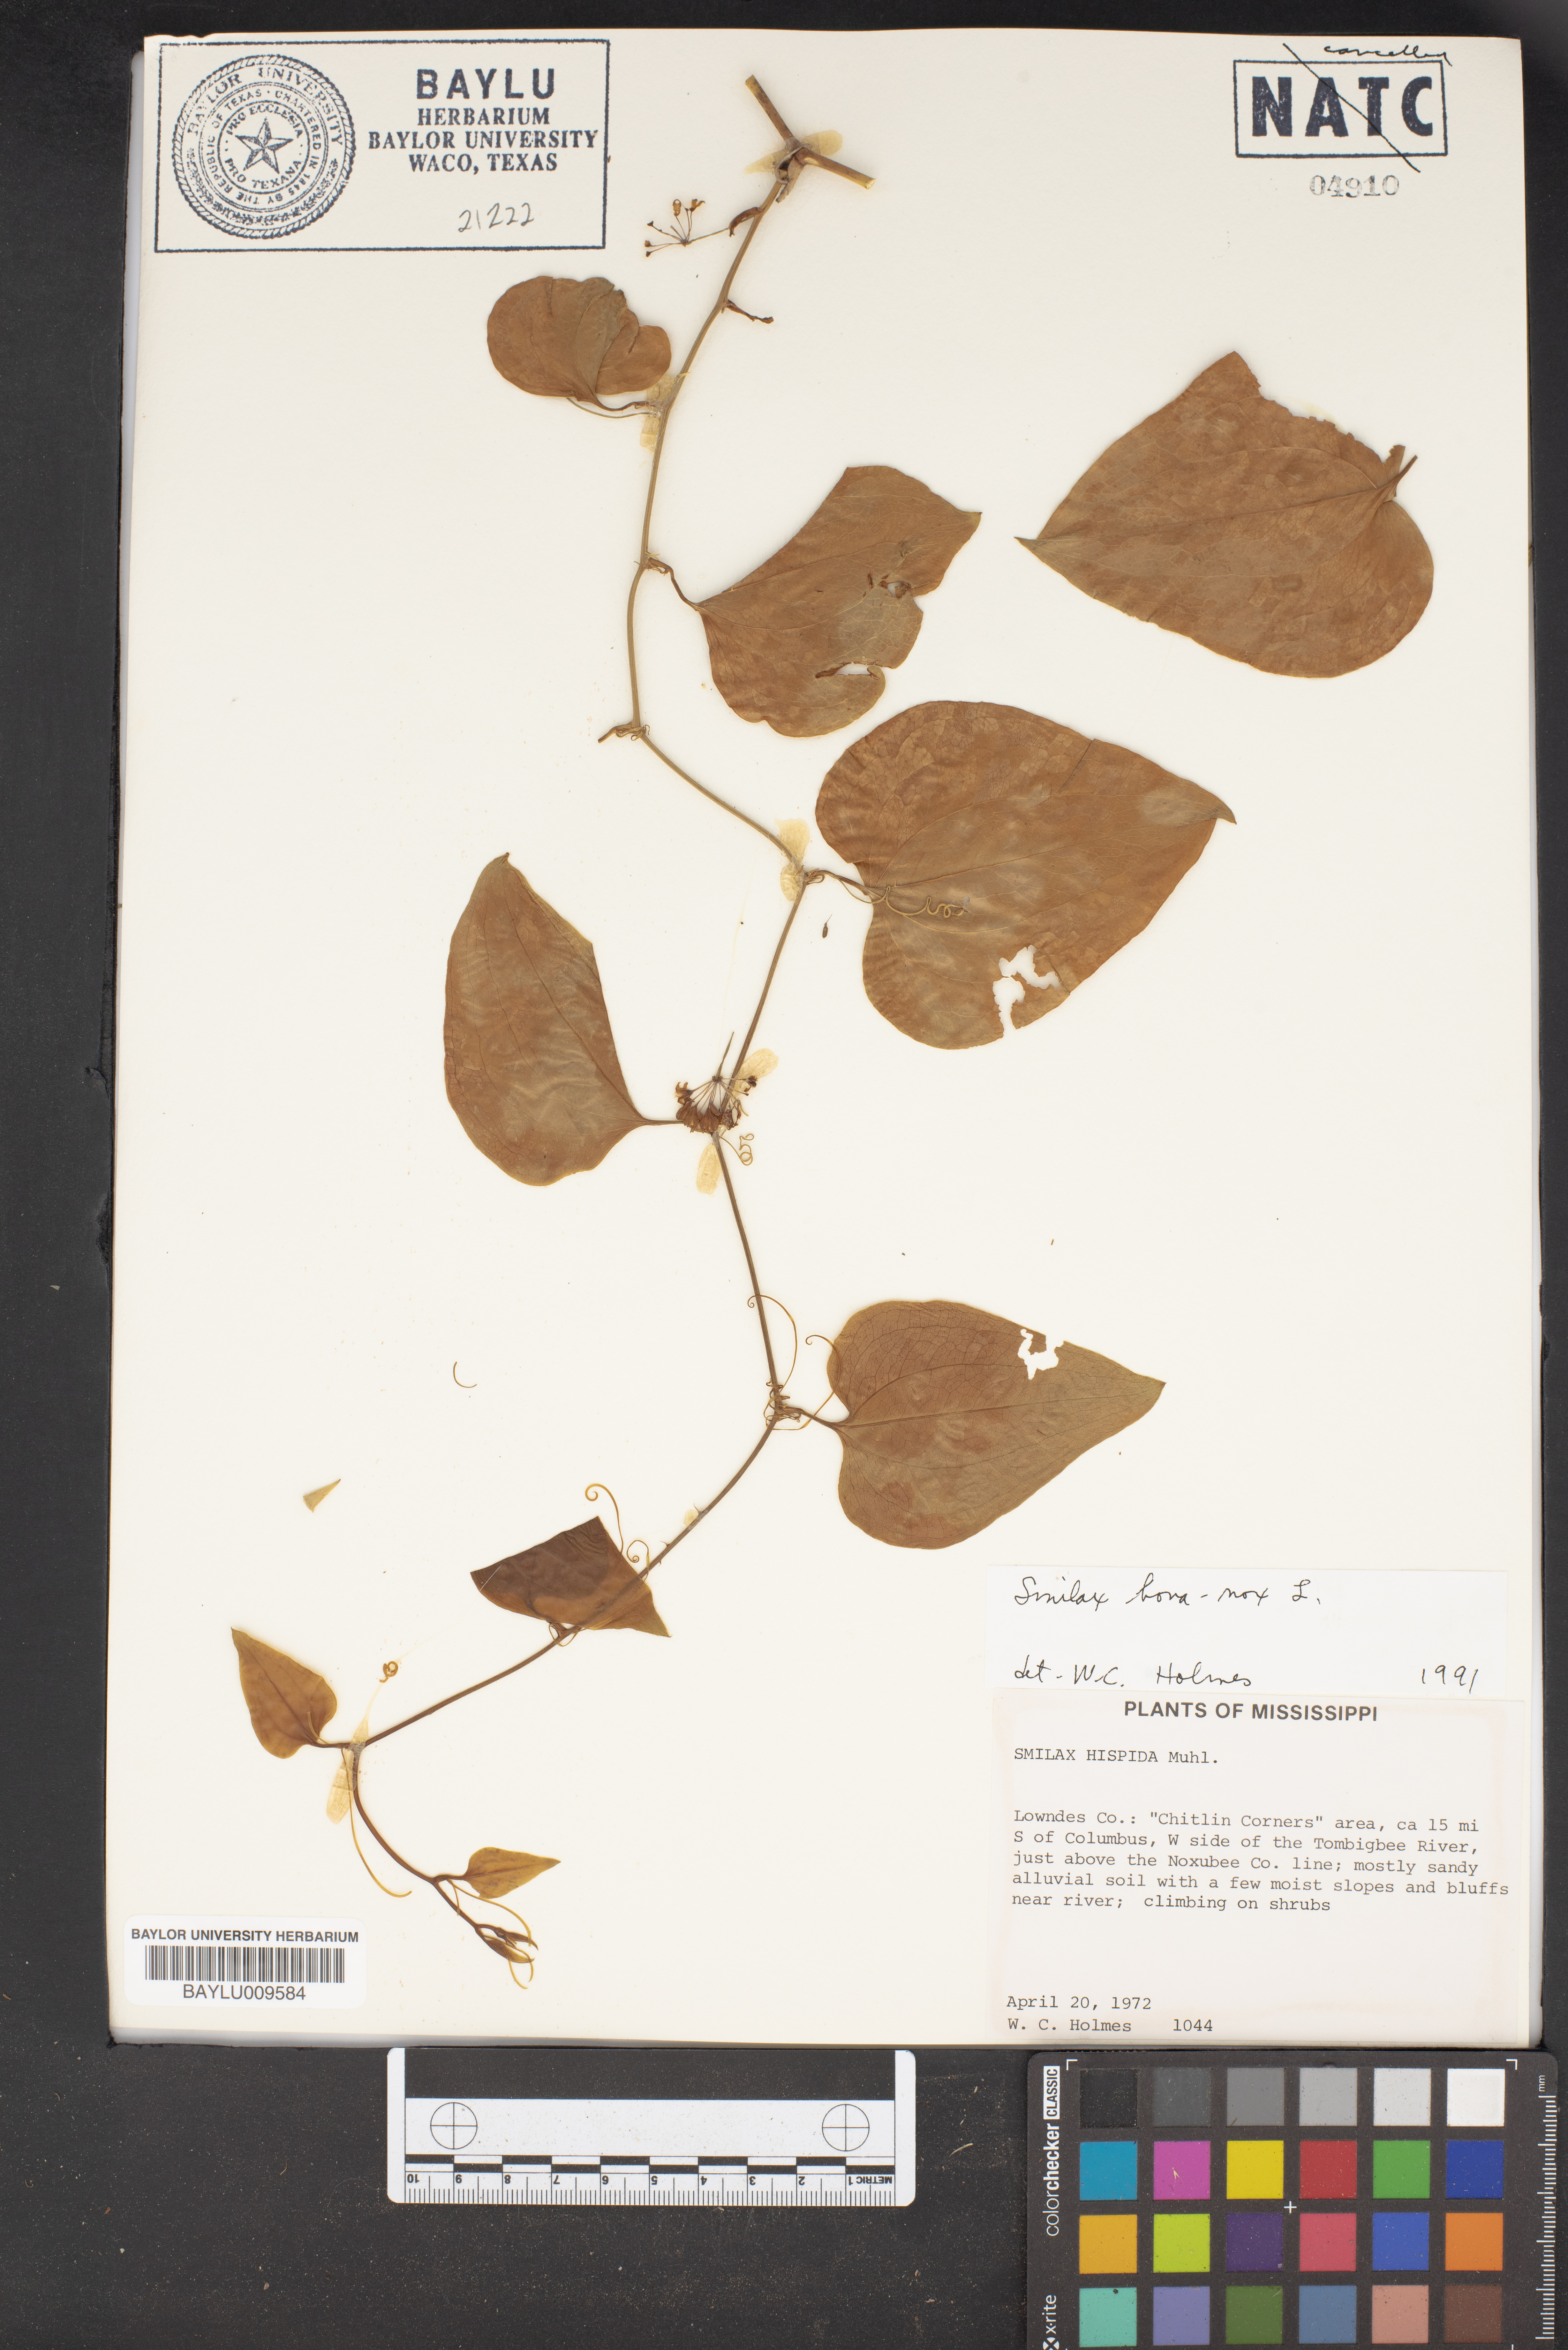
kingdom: Plantae
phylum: Tracheophyta
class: Liliopsida
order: Liliales
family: Smilacaceae
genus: Smilax
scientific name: Smilax bona-nox
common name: Catbrier
